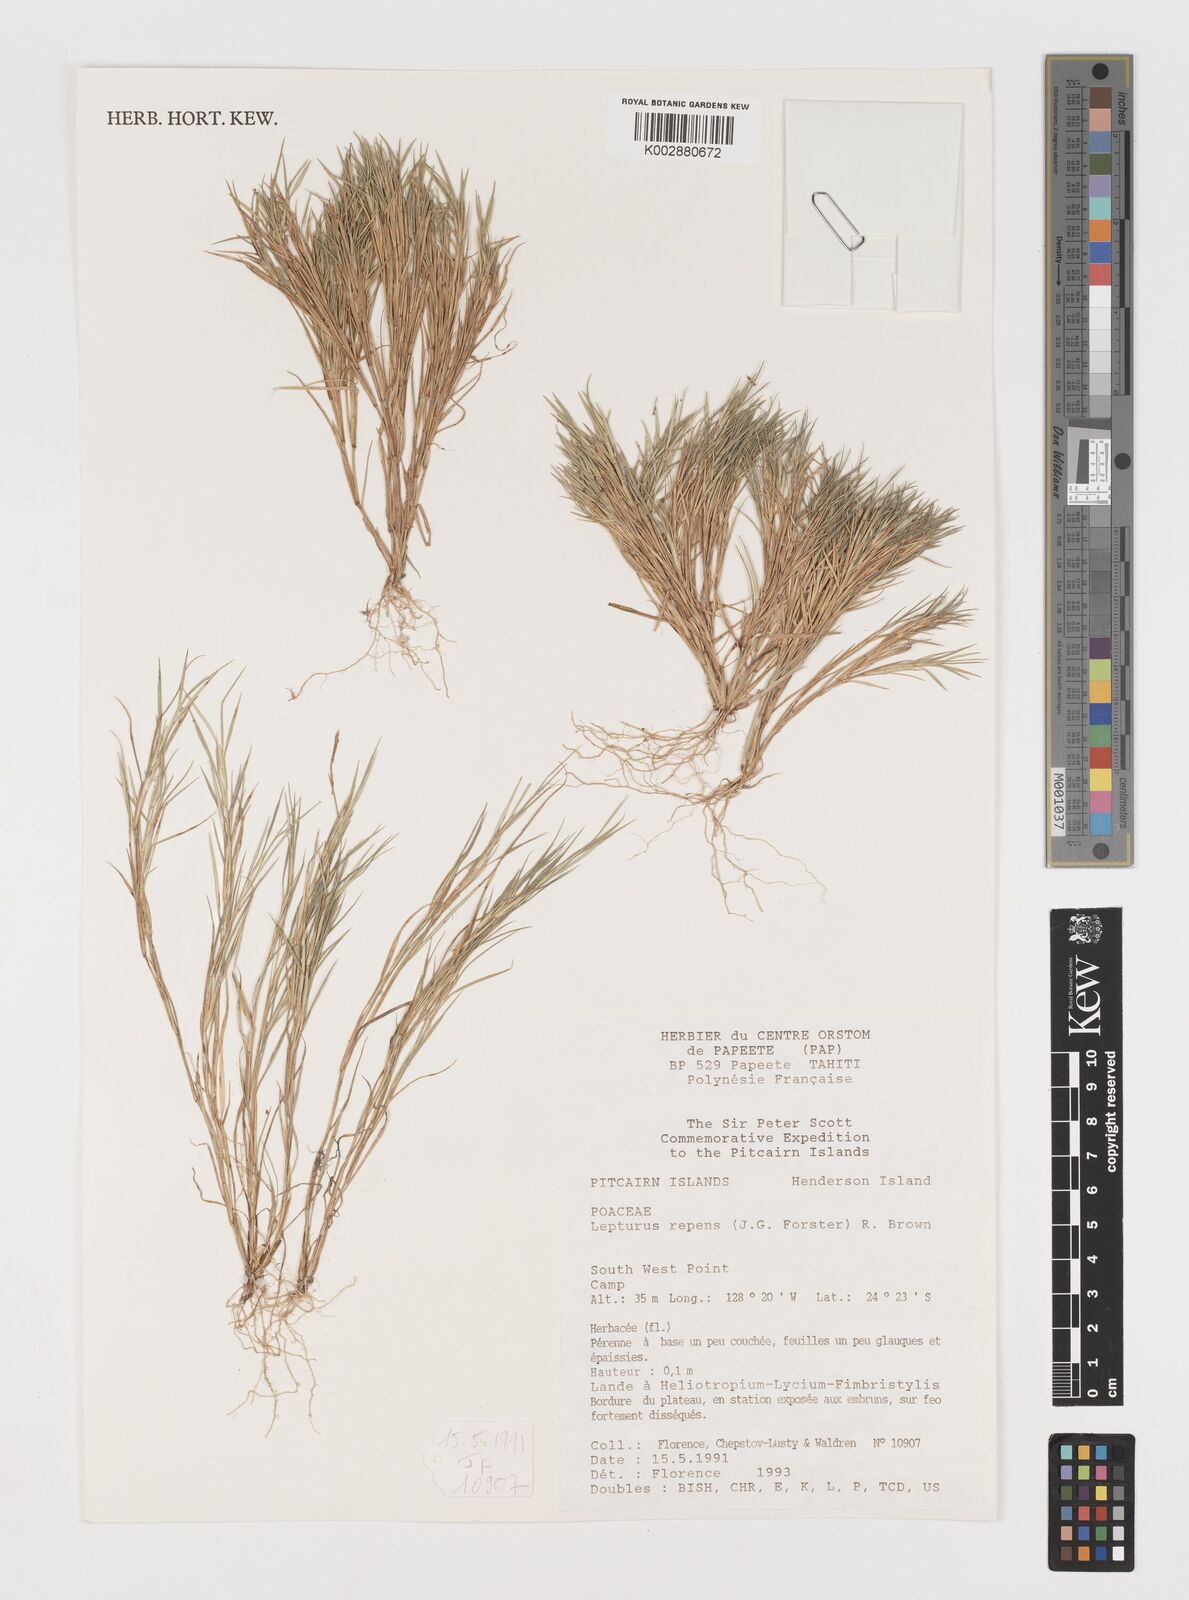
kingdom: Plantae
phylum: Tracheophyta
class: Liliopsida
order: Poales
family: Poaceae
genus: Lepturus
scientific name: Lepturus repens
